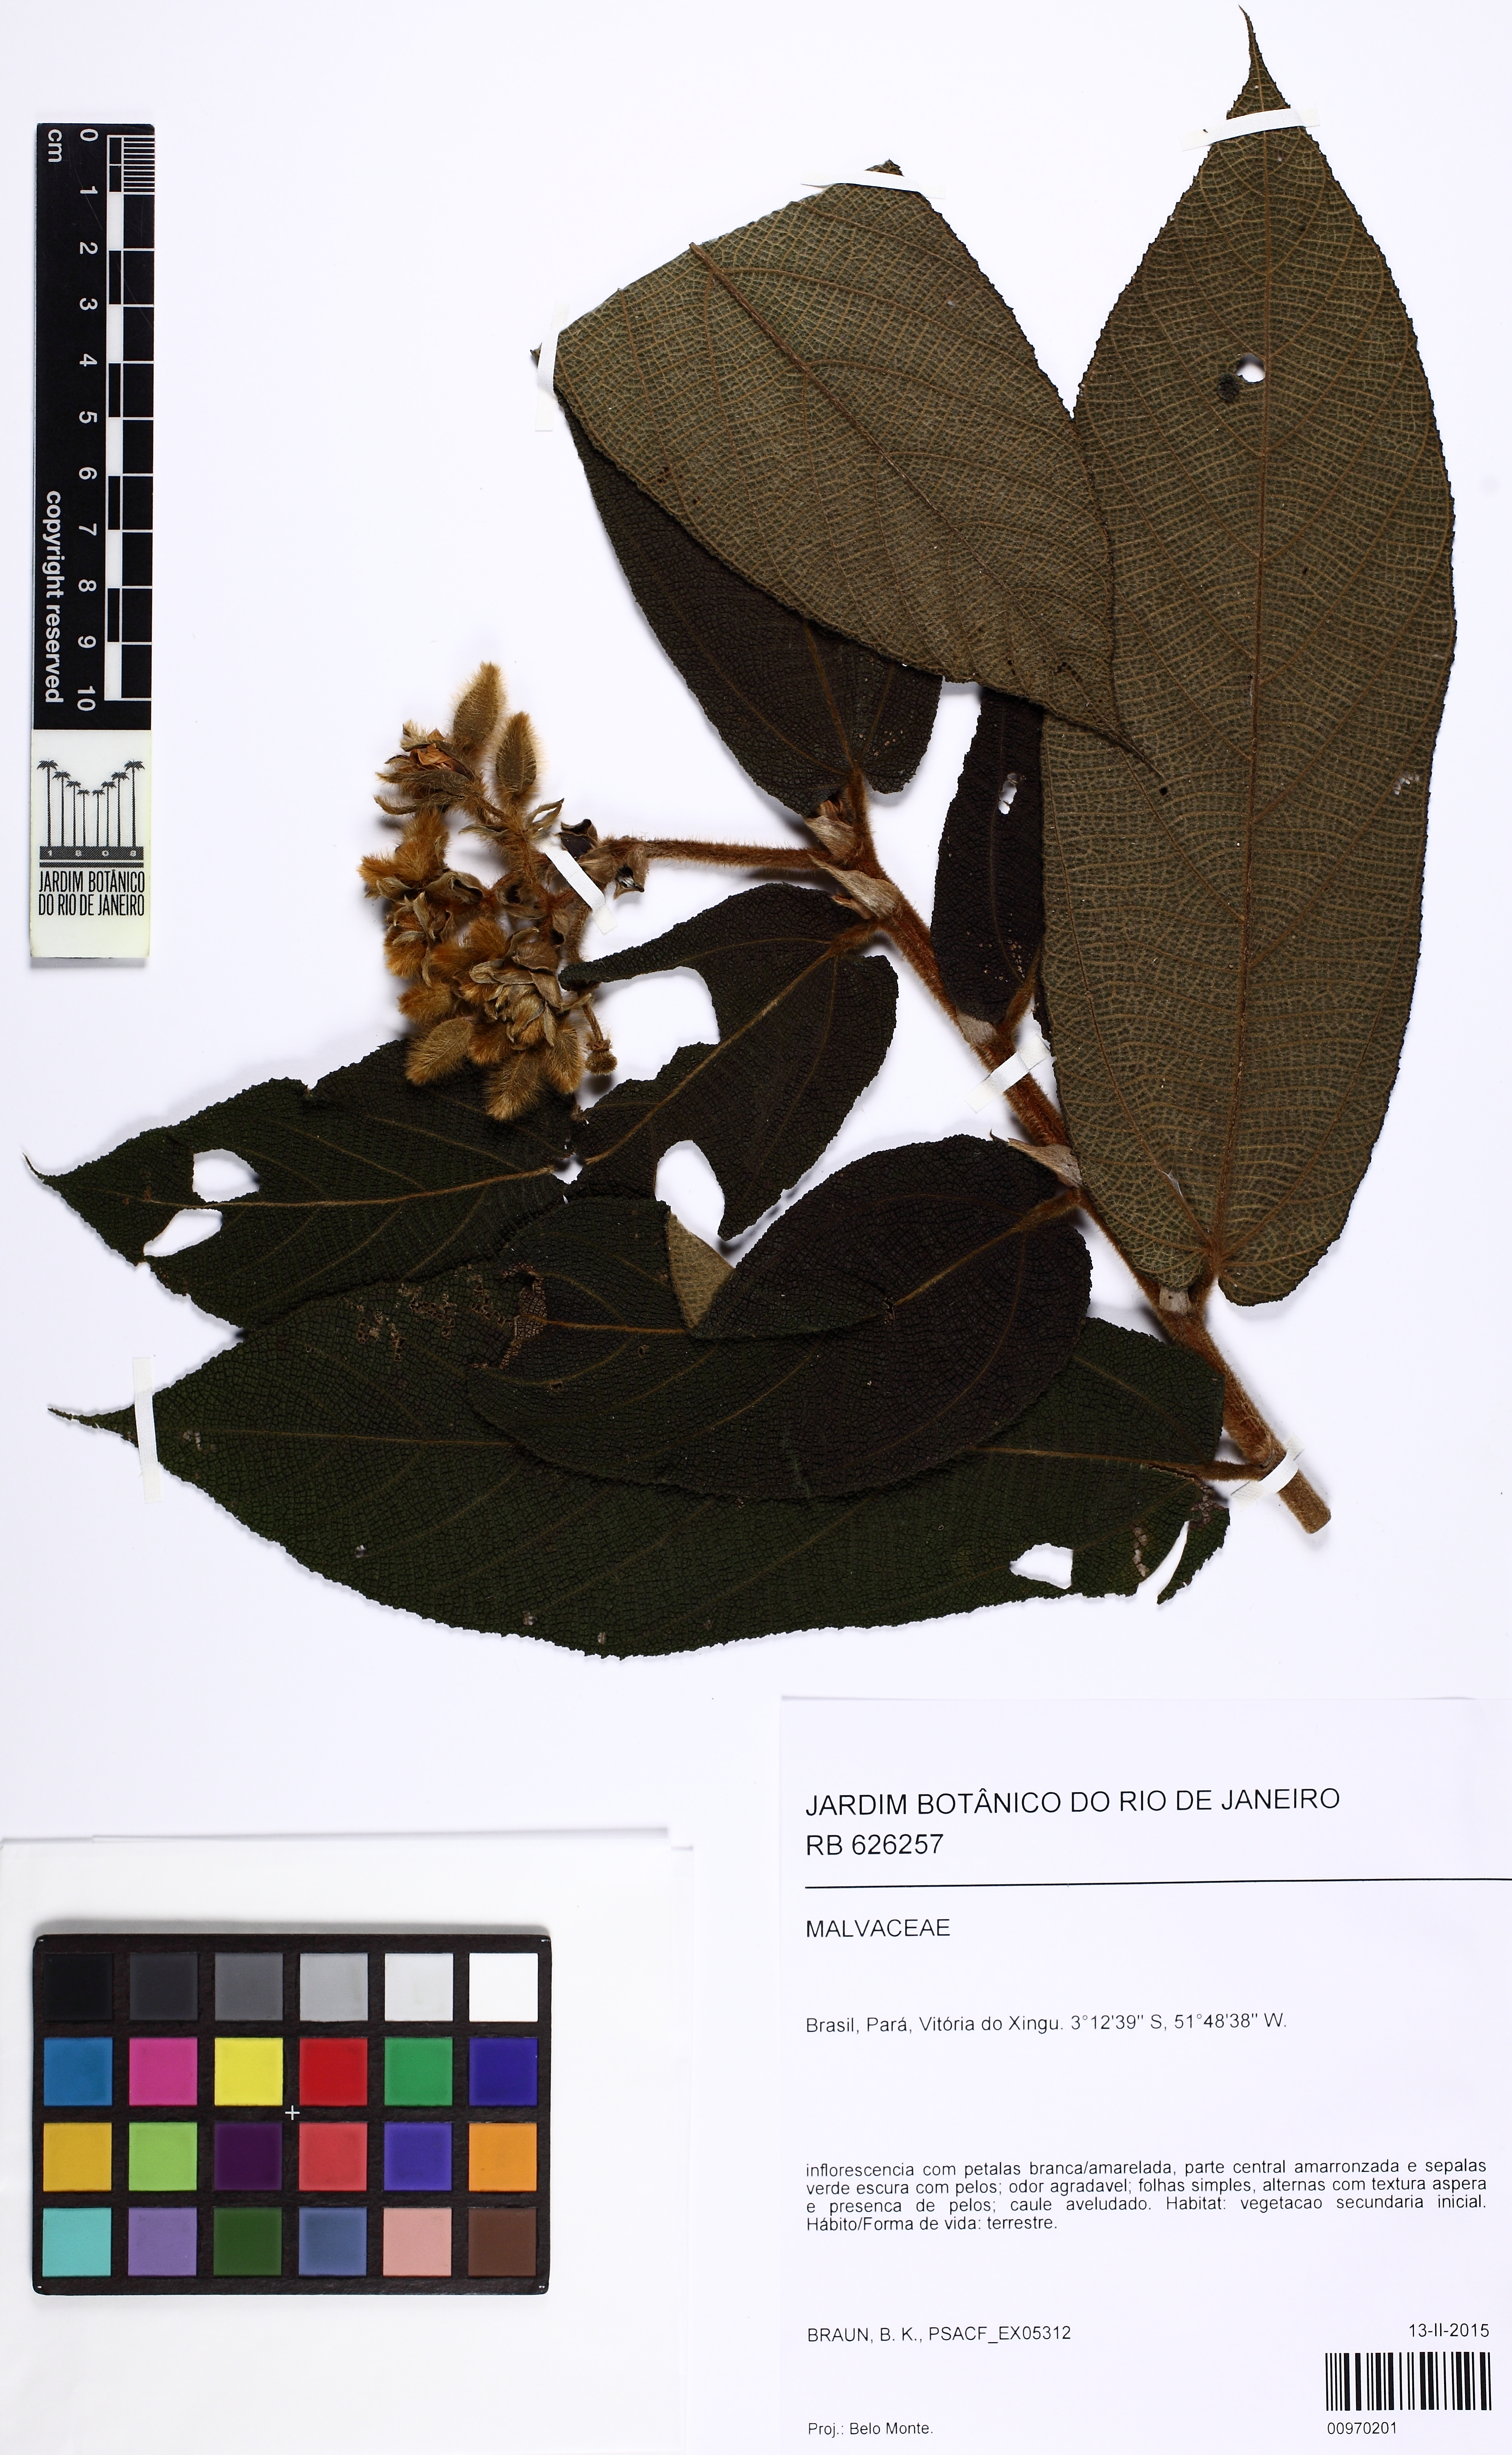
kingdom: Plantae
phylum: Tracheophyta
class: Magnoliopsida
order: Malvales
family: Malvaceae
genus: Apeiba
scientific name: Apeiba albiflora
